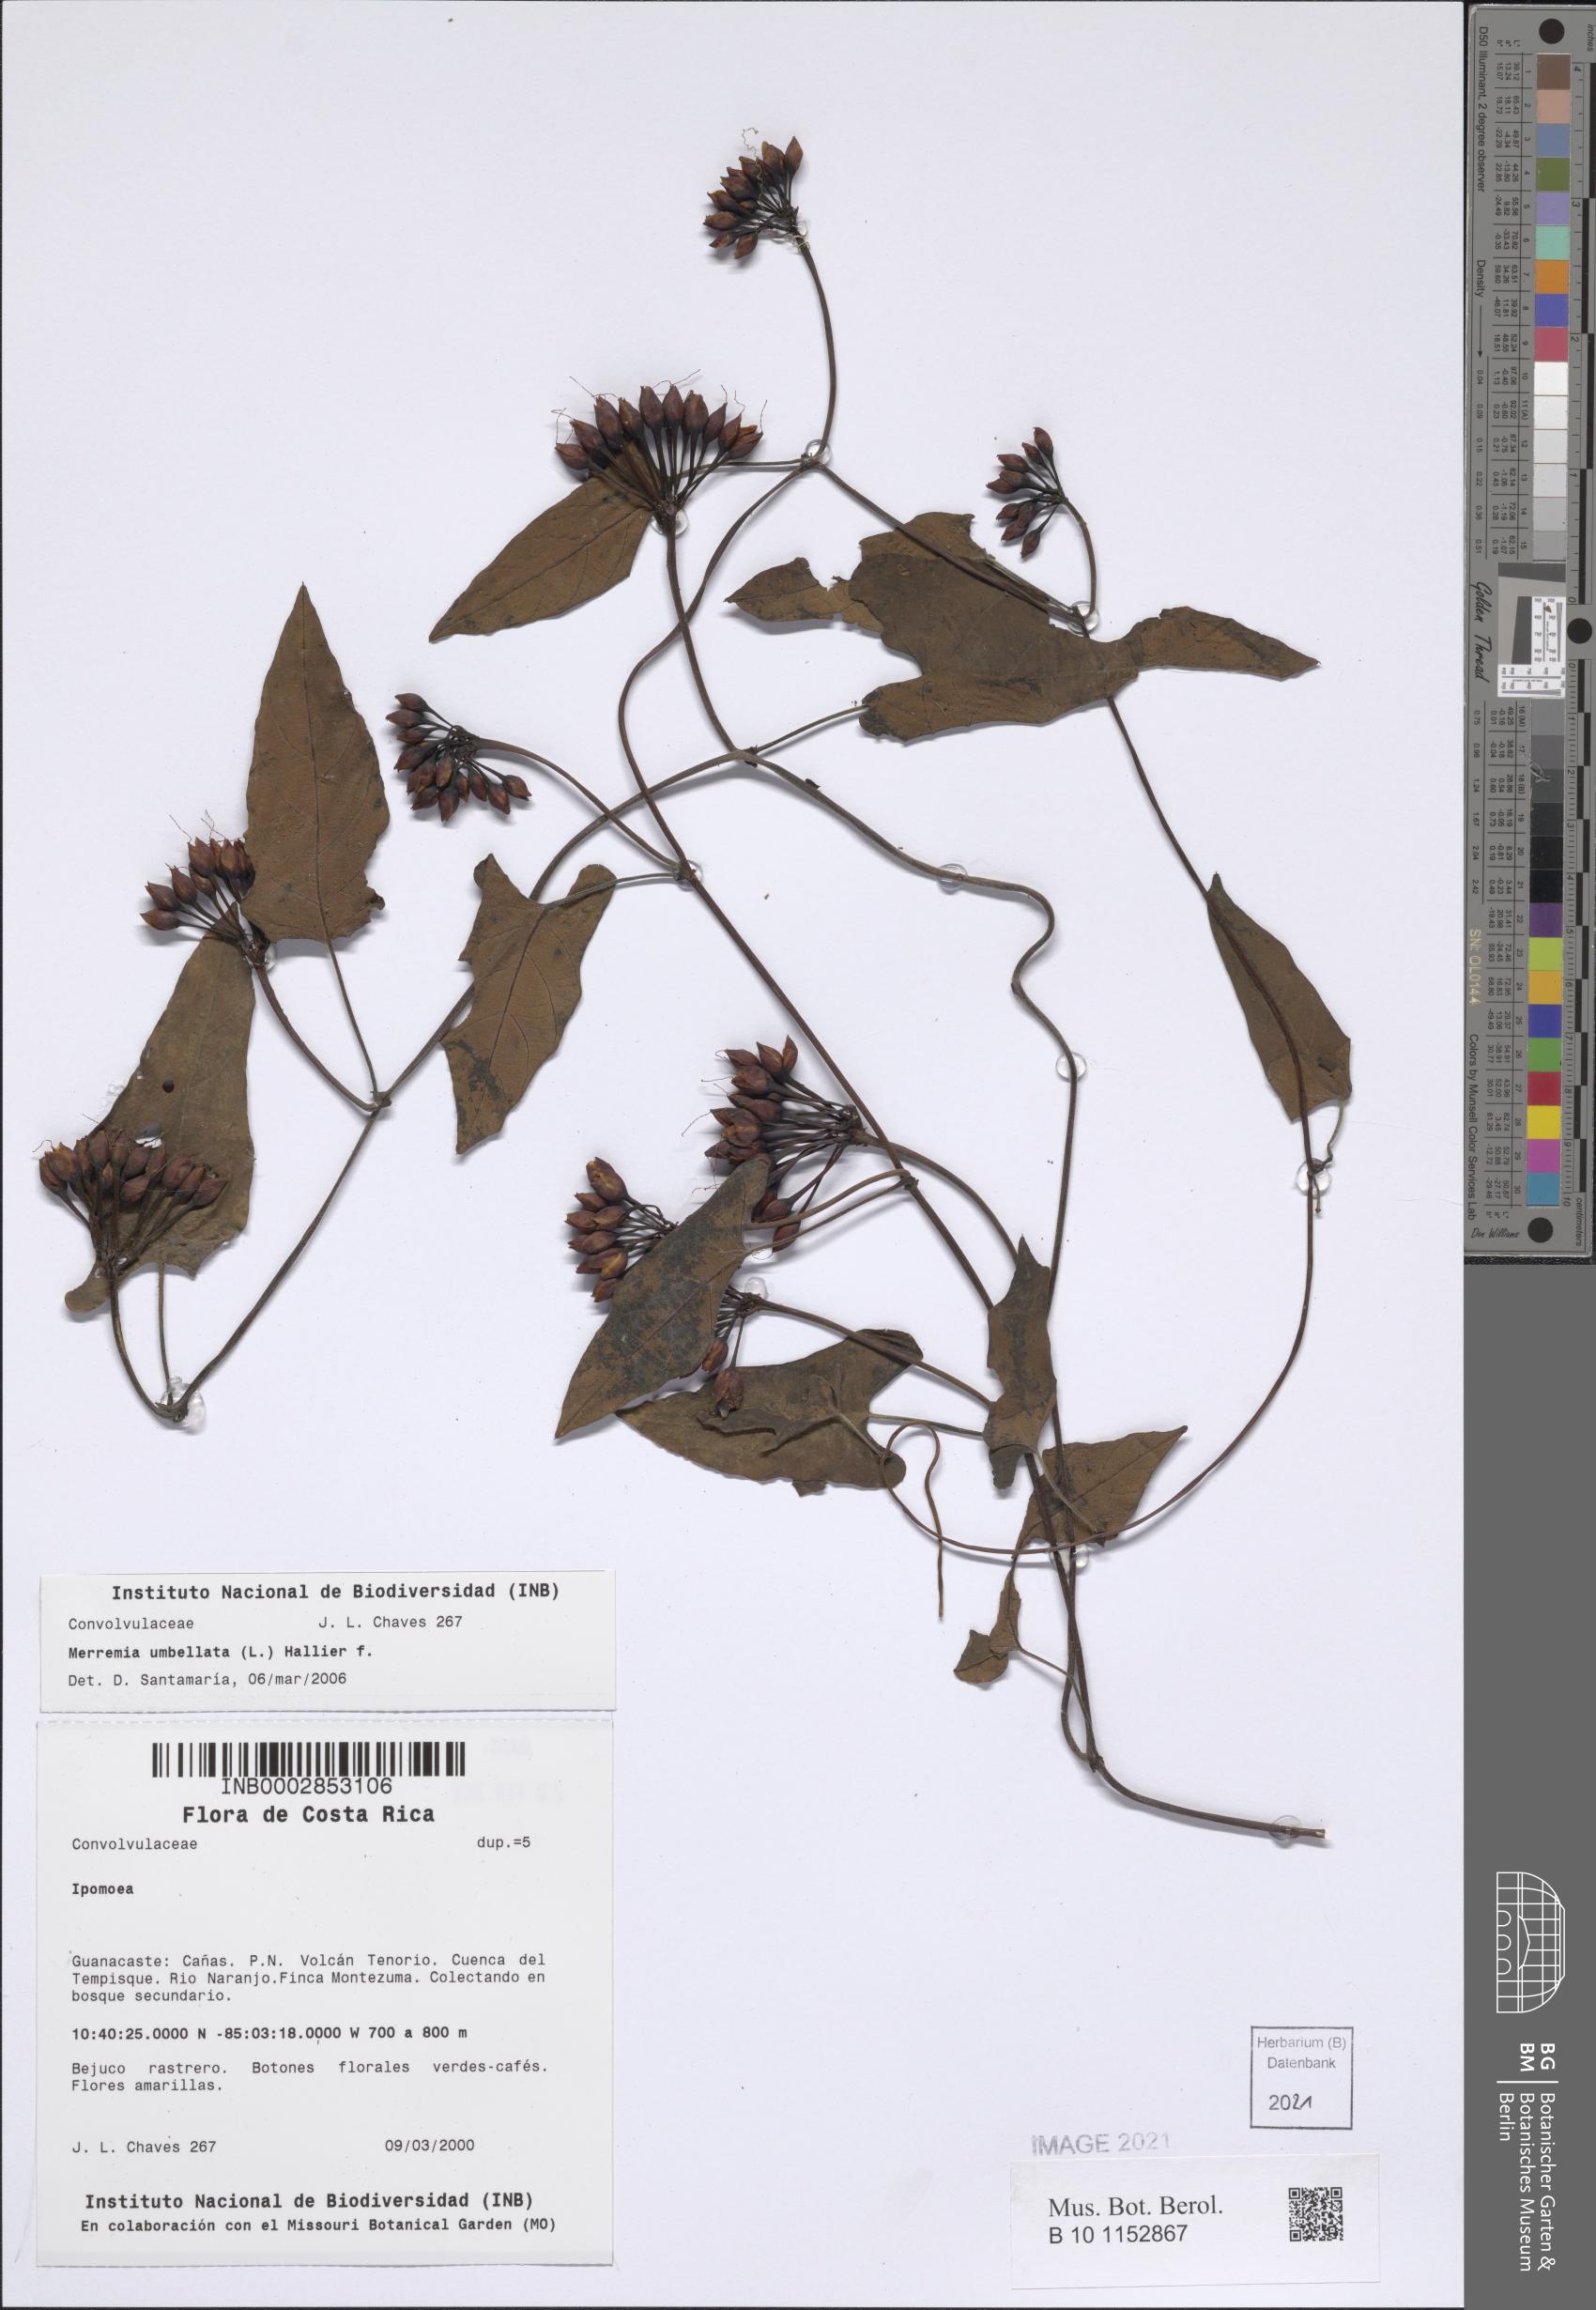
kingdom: Plantae
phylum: Tracheophyta
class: Magnoliopsida
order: Solanales
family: Convolvulaceae
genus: Camonea
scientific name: Camonea umbellata
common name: Hogvine
